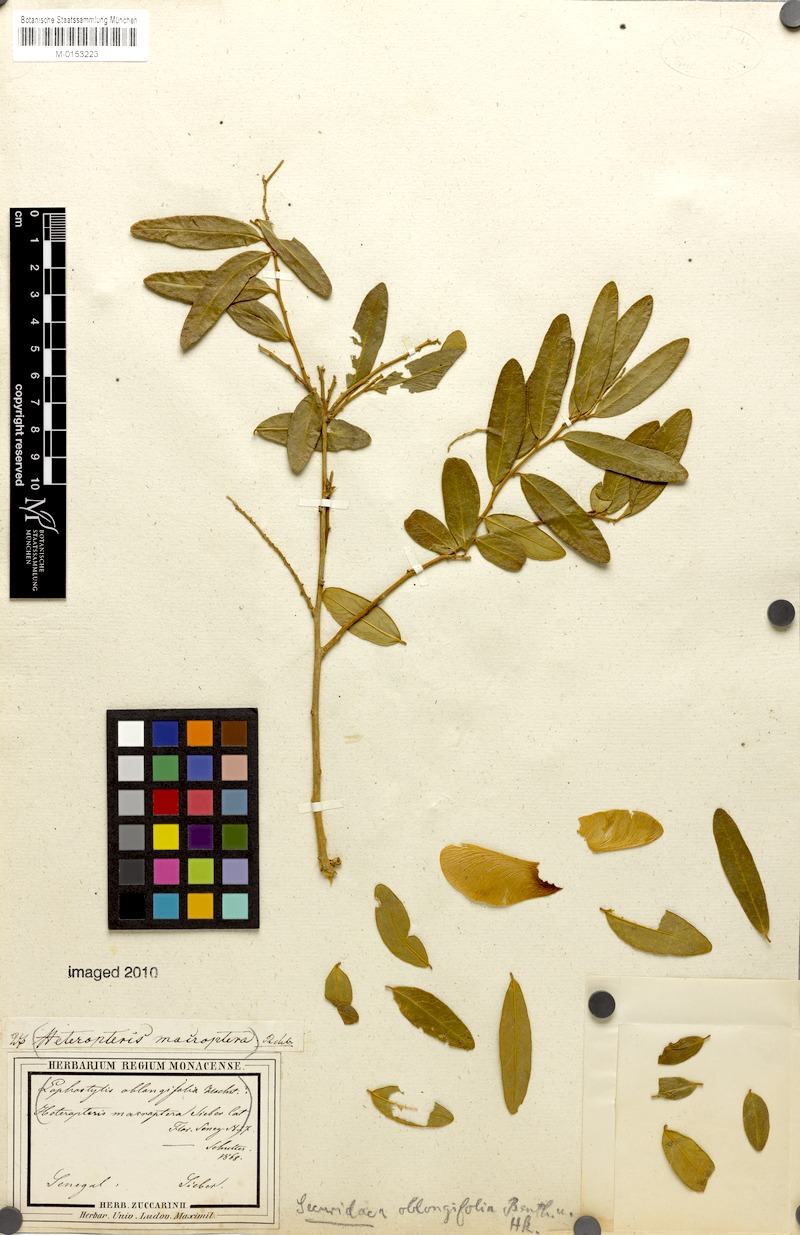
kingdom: Plantae
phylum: Tracheophyta
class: Magnoliopsida
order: Fabales
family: Polygalaceae
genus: Securidaca
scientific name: Securidaca longepedunculata
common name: Violet tree
